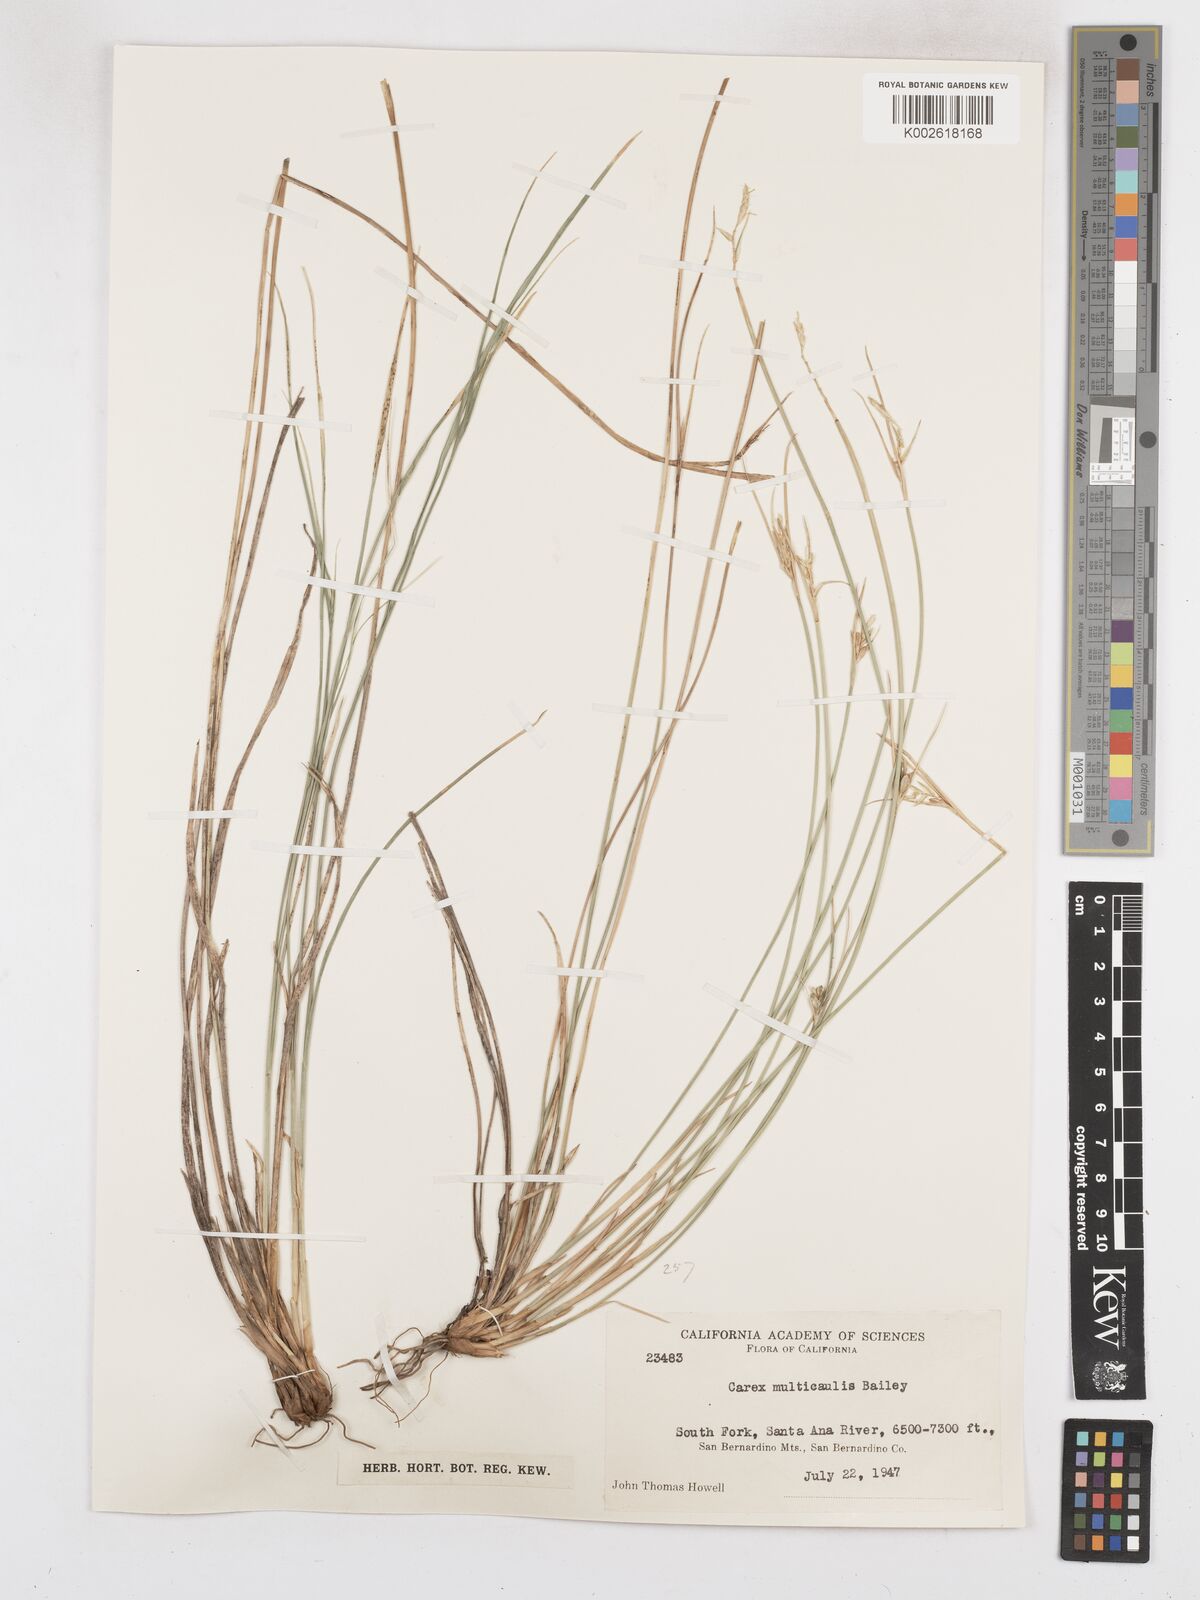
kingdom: Plantae
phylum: Tracheophyta
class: Liliopsida
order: Poales
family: Cyperaceae
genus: Carex
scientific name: Carex multicaulis
